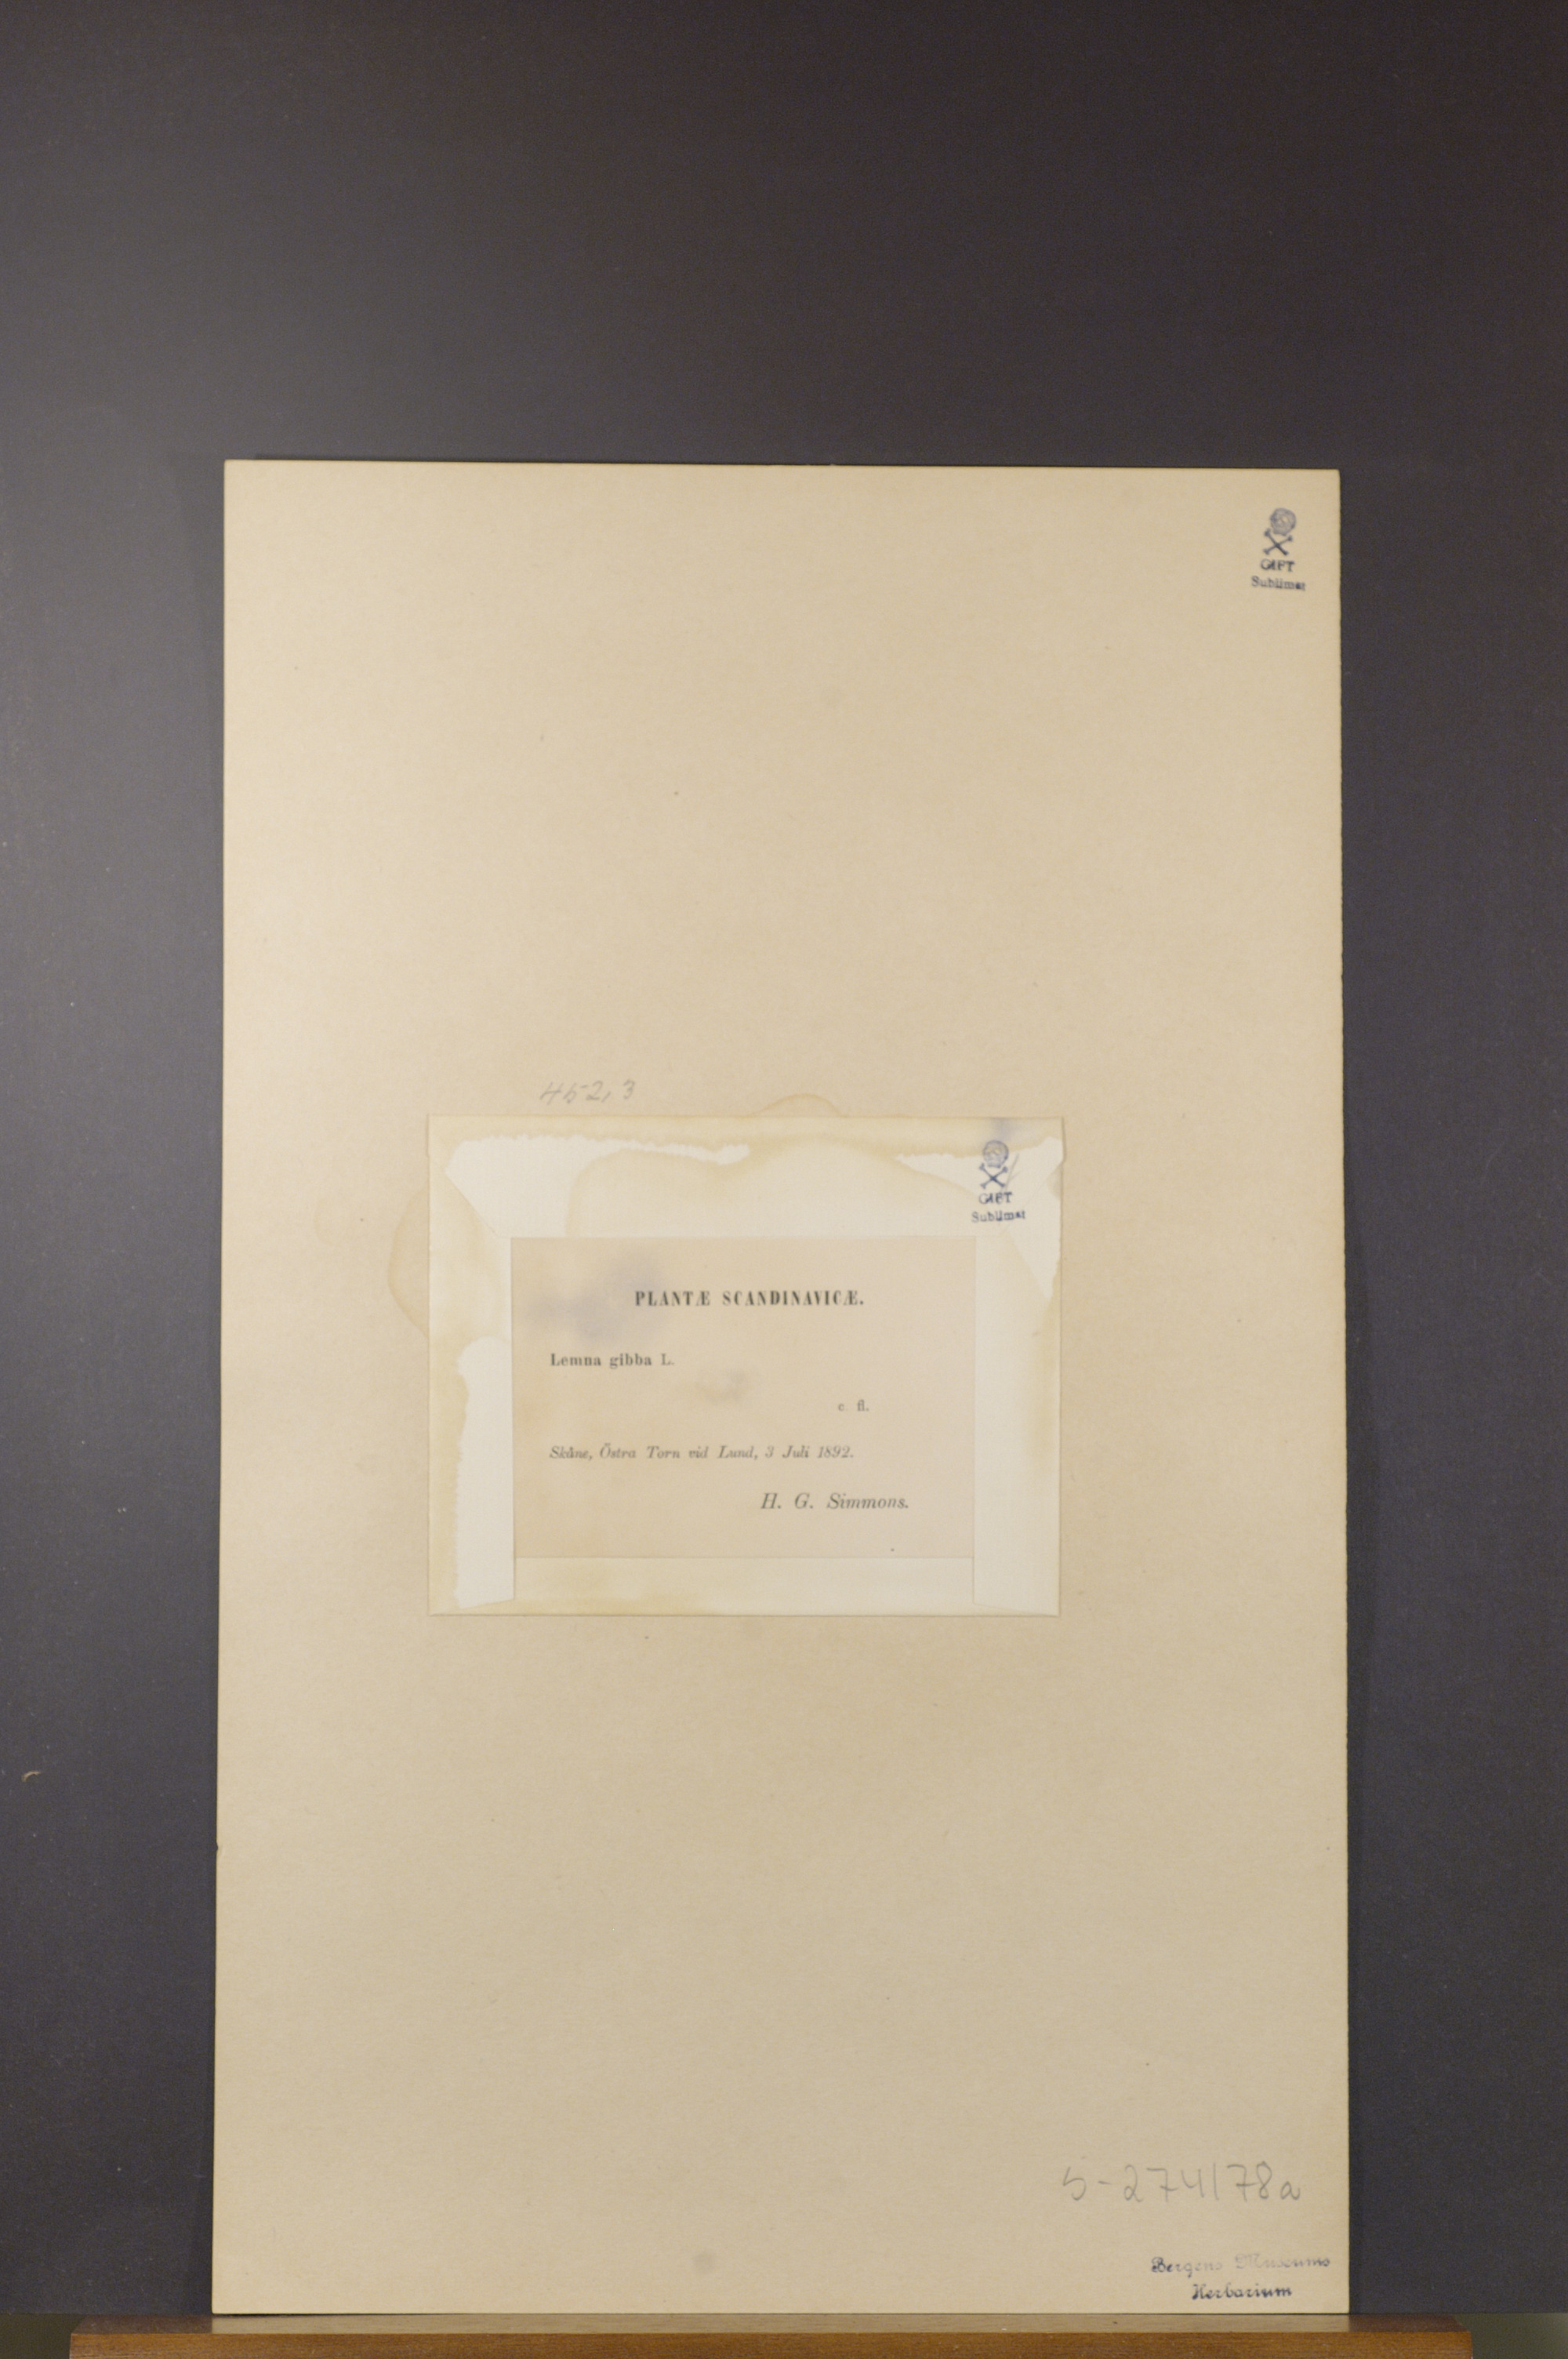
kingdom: Plantae
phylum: Tracheophyta
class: Liliopsida
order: Alismatales
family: Araceae
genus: Lemna
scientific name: Lemna gibba
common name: Fat duckweed
